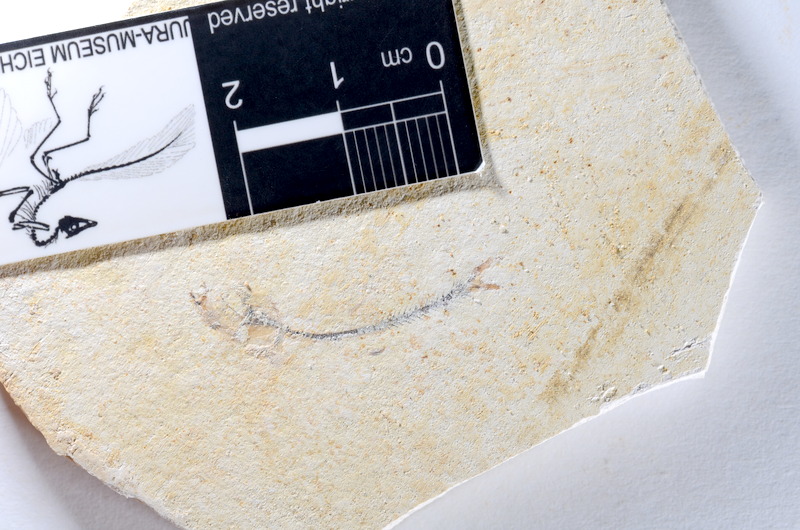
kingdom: Animalia
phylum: Chordata
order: Salmoniformes
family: Orthogonikleithridae
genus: Orthogonikleithrus
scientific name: Orthogonikleithrus hoelli
